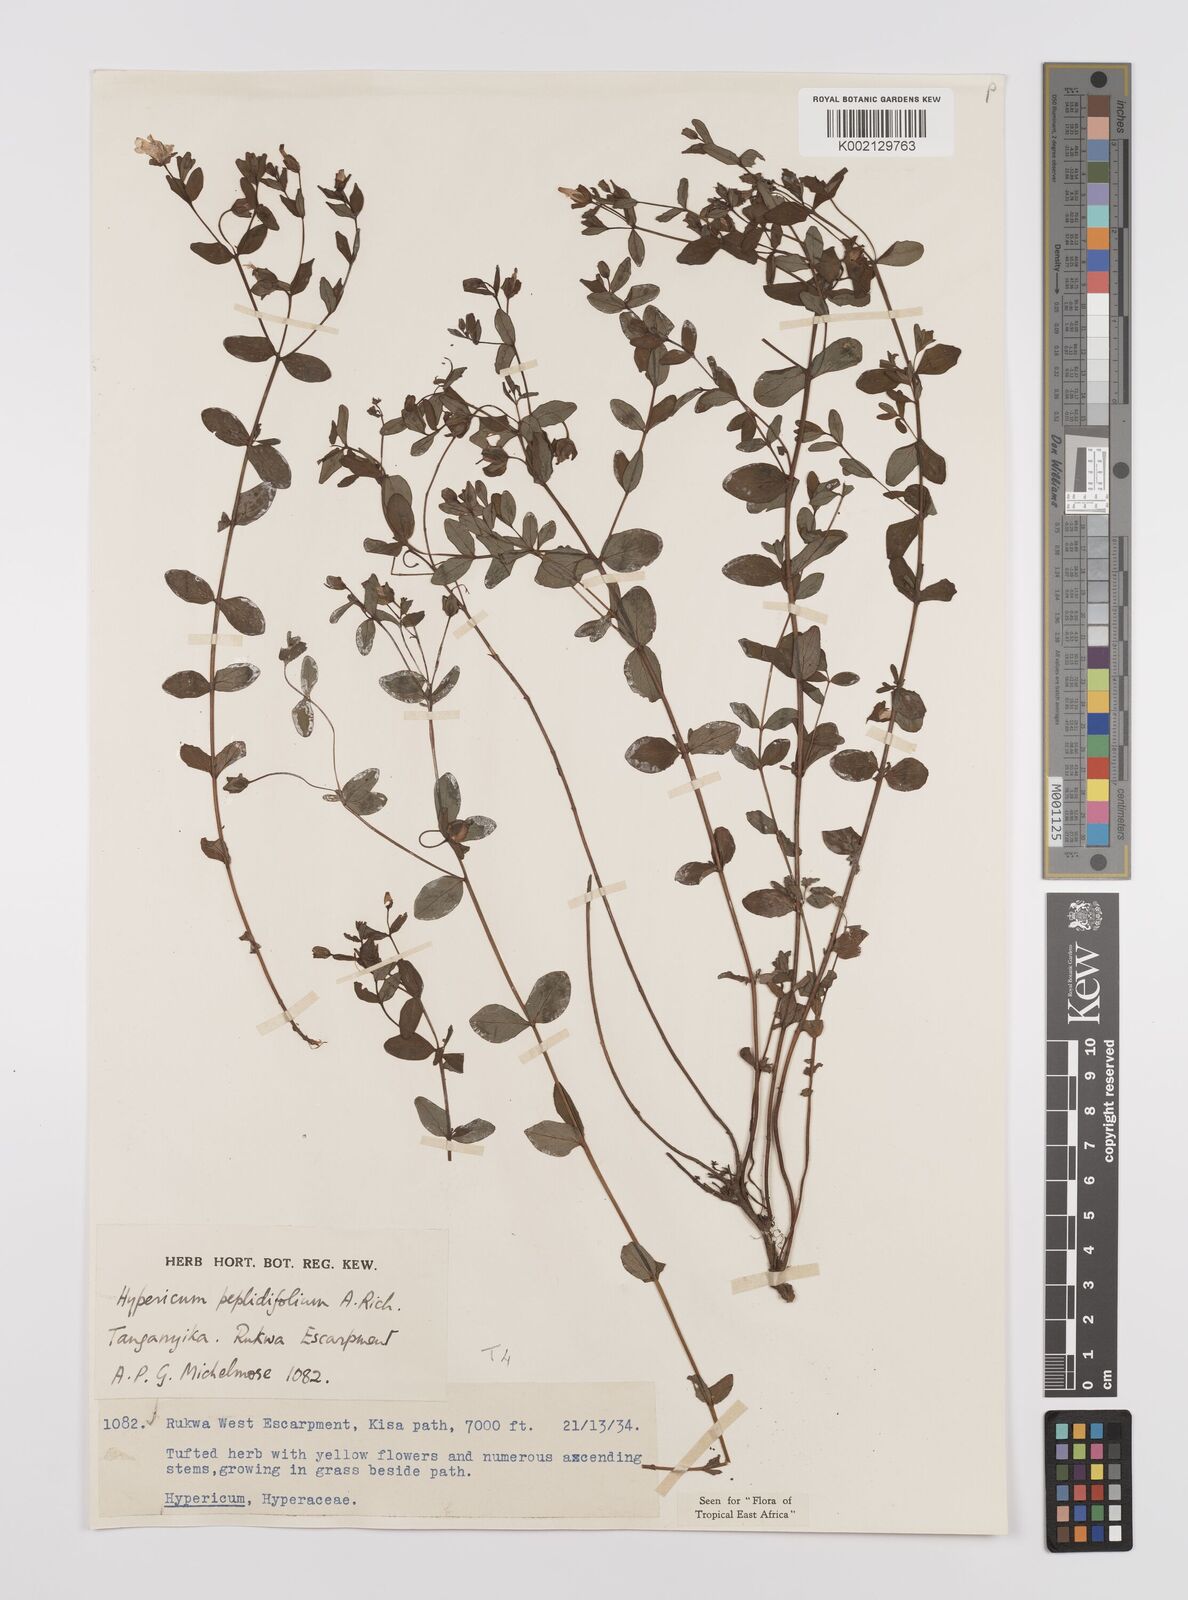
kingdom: Plantae
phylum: Tracheophyta
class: Magnoliopsida
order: Malpighiales
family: Hypericaceae
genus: Hypericum
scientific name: Hypericum peplidifolium
